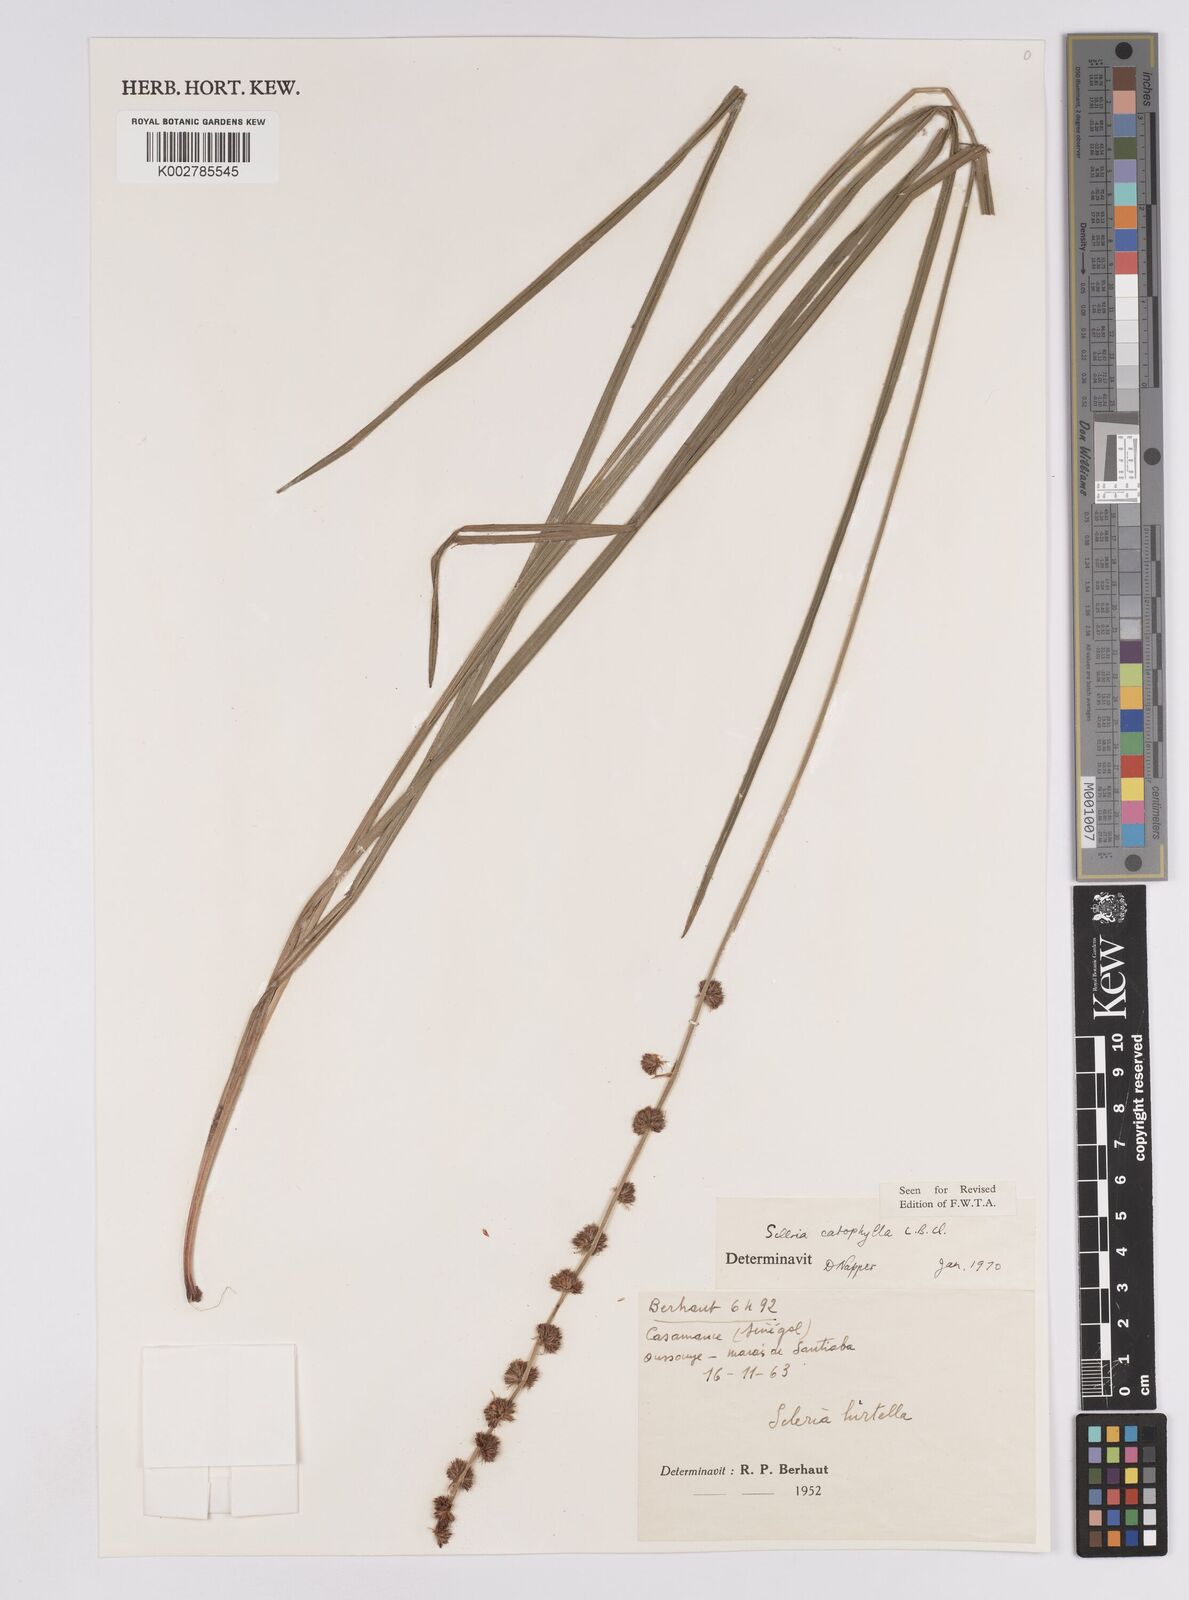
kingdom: Plantae
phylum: Tracheophyta
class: Liliopsida
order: Poales
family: Cyperaceae
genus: Scleria
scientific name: Scleria catophylla
